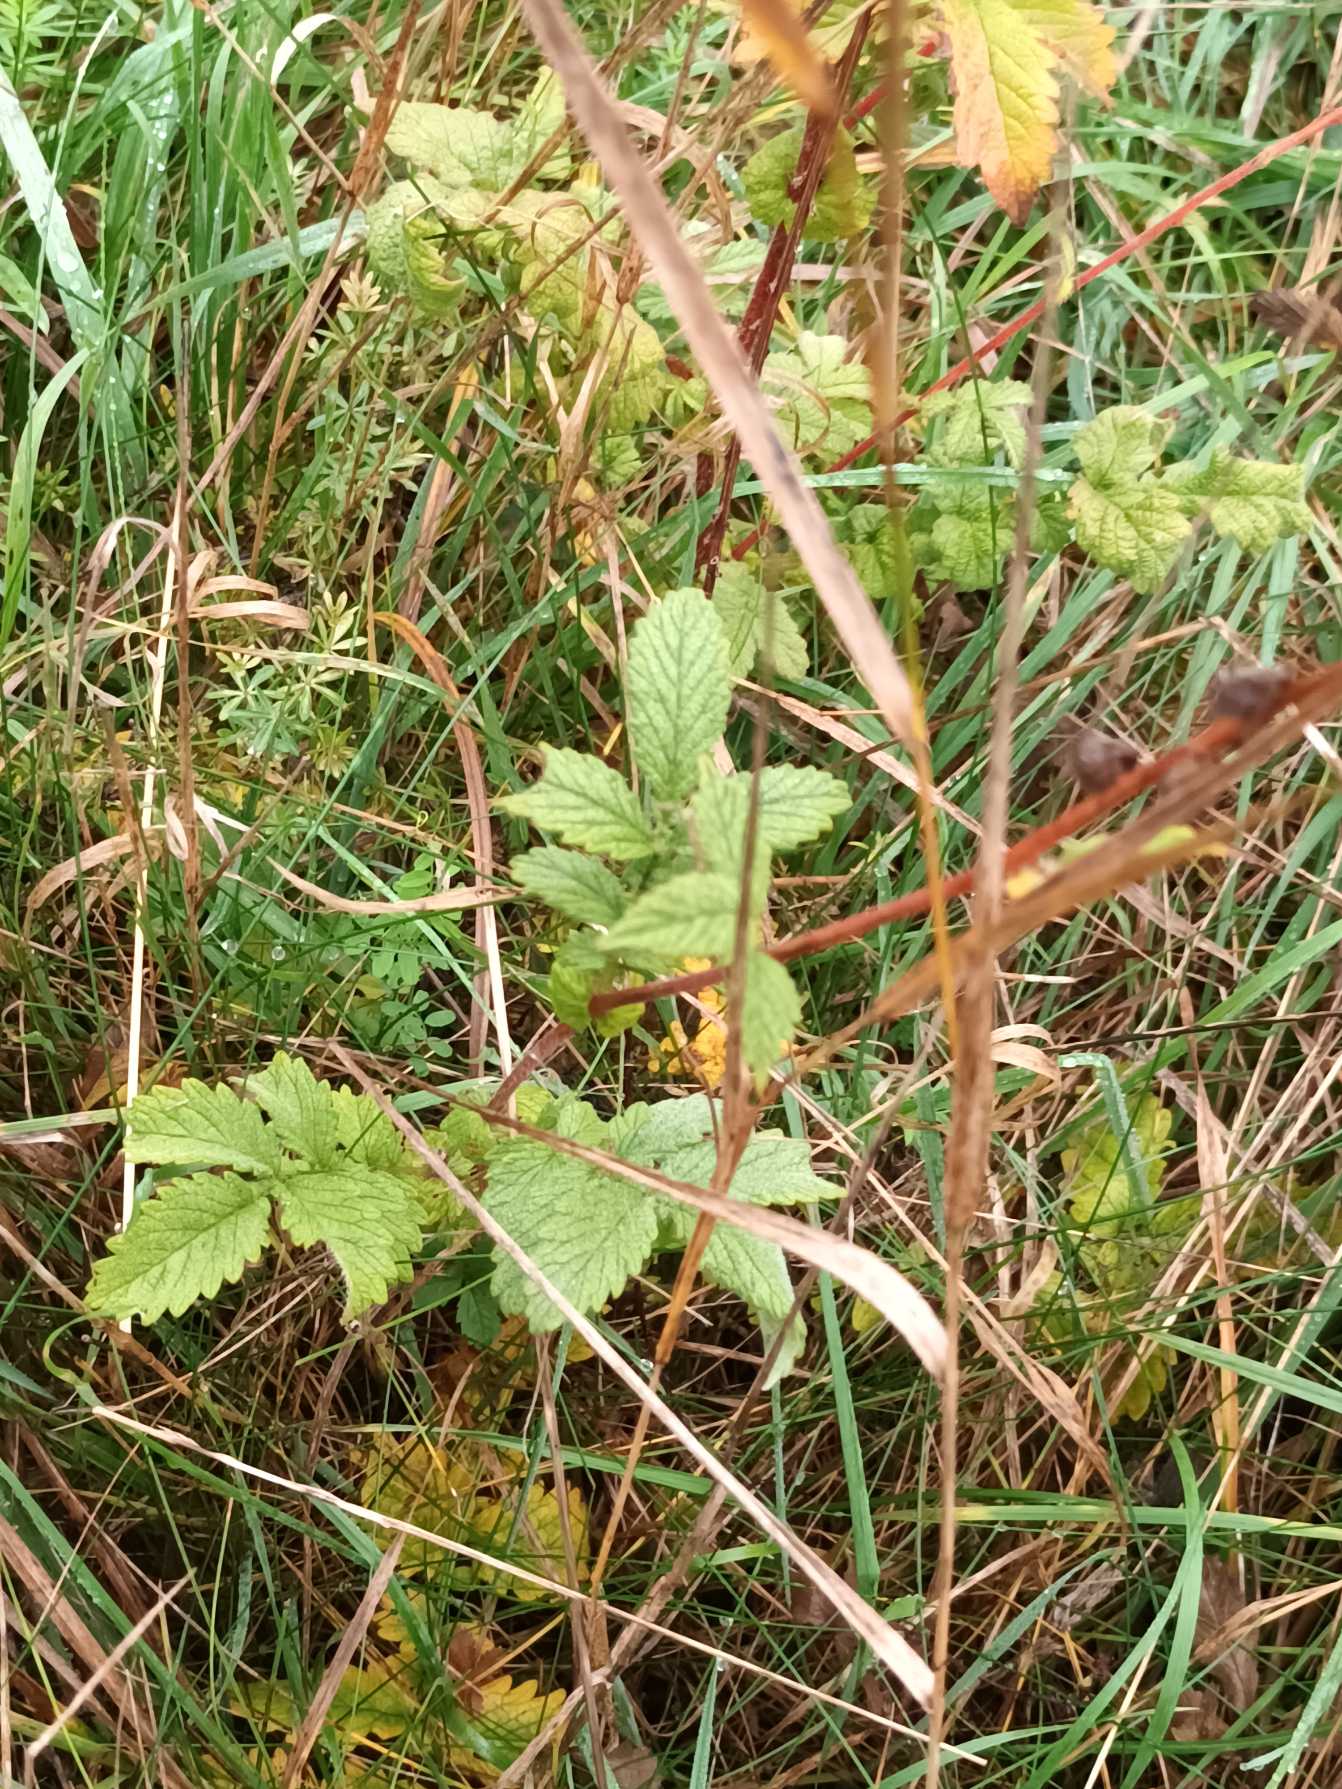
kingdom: Plantae
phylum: Tracheophyta
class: Magnoliopsida
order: Rosales
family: Rosaceae
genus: Agrimonia
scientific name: Agrimonia eupatoria
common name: Almindelig agermåne
